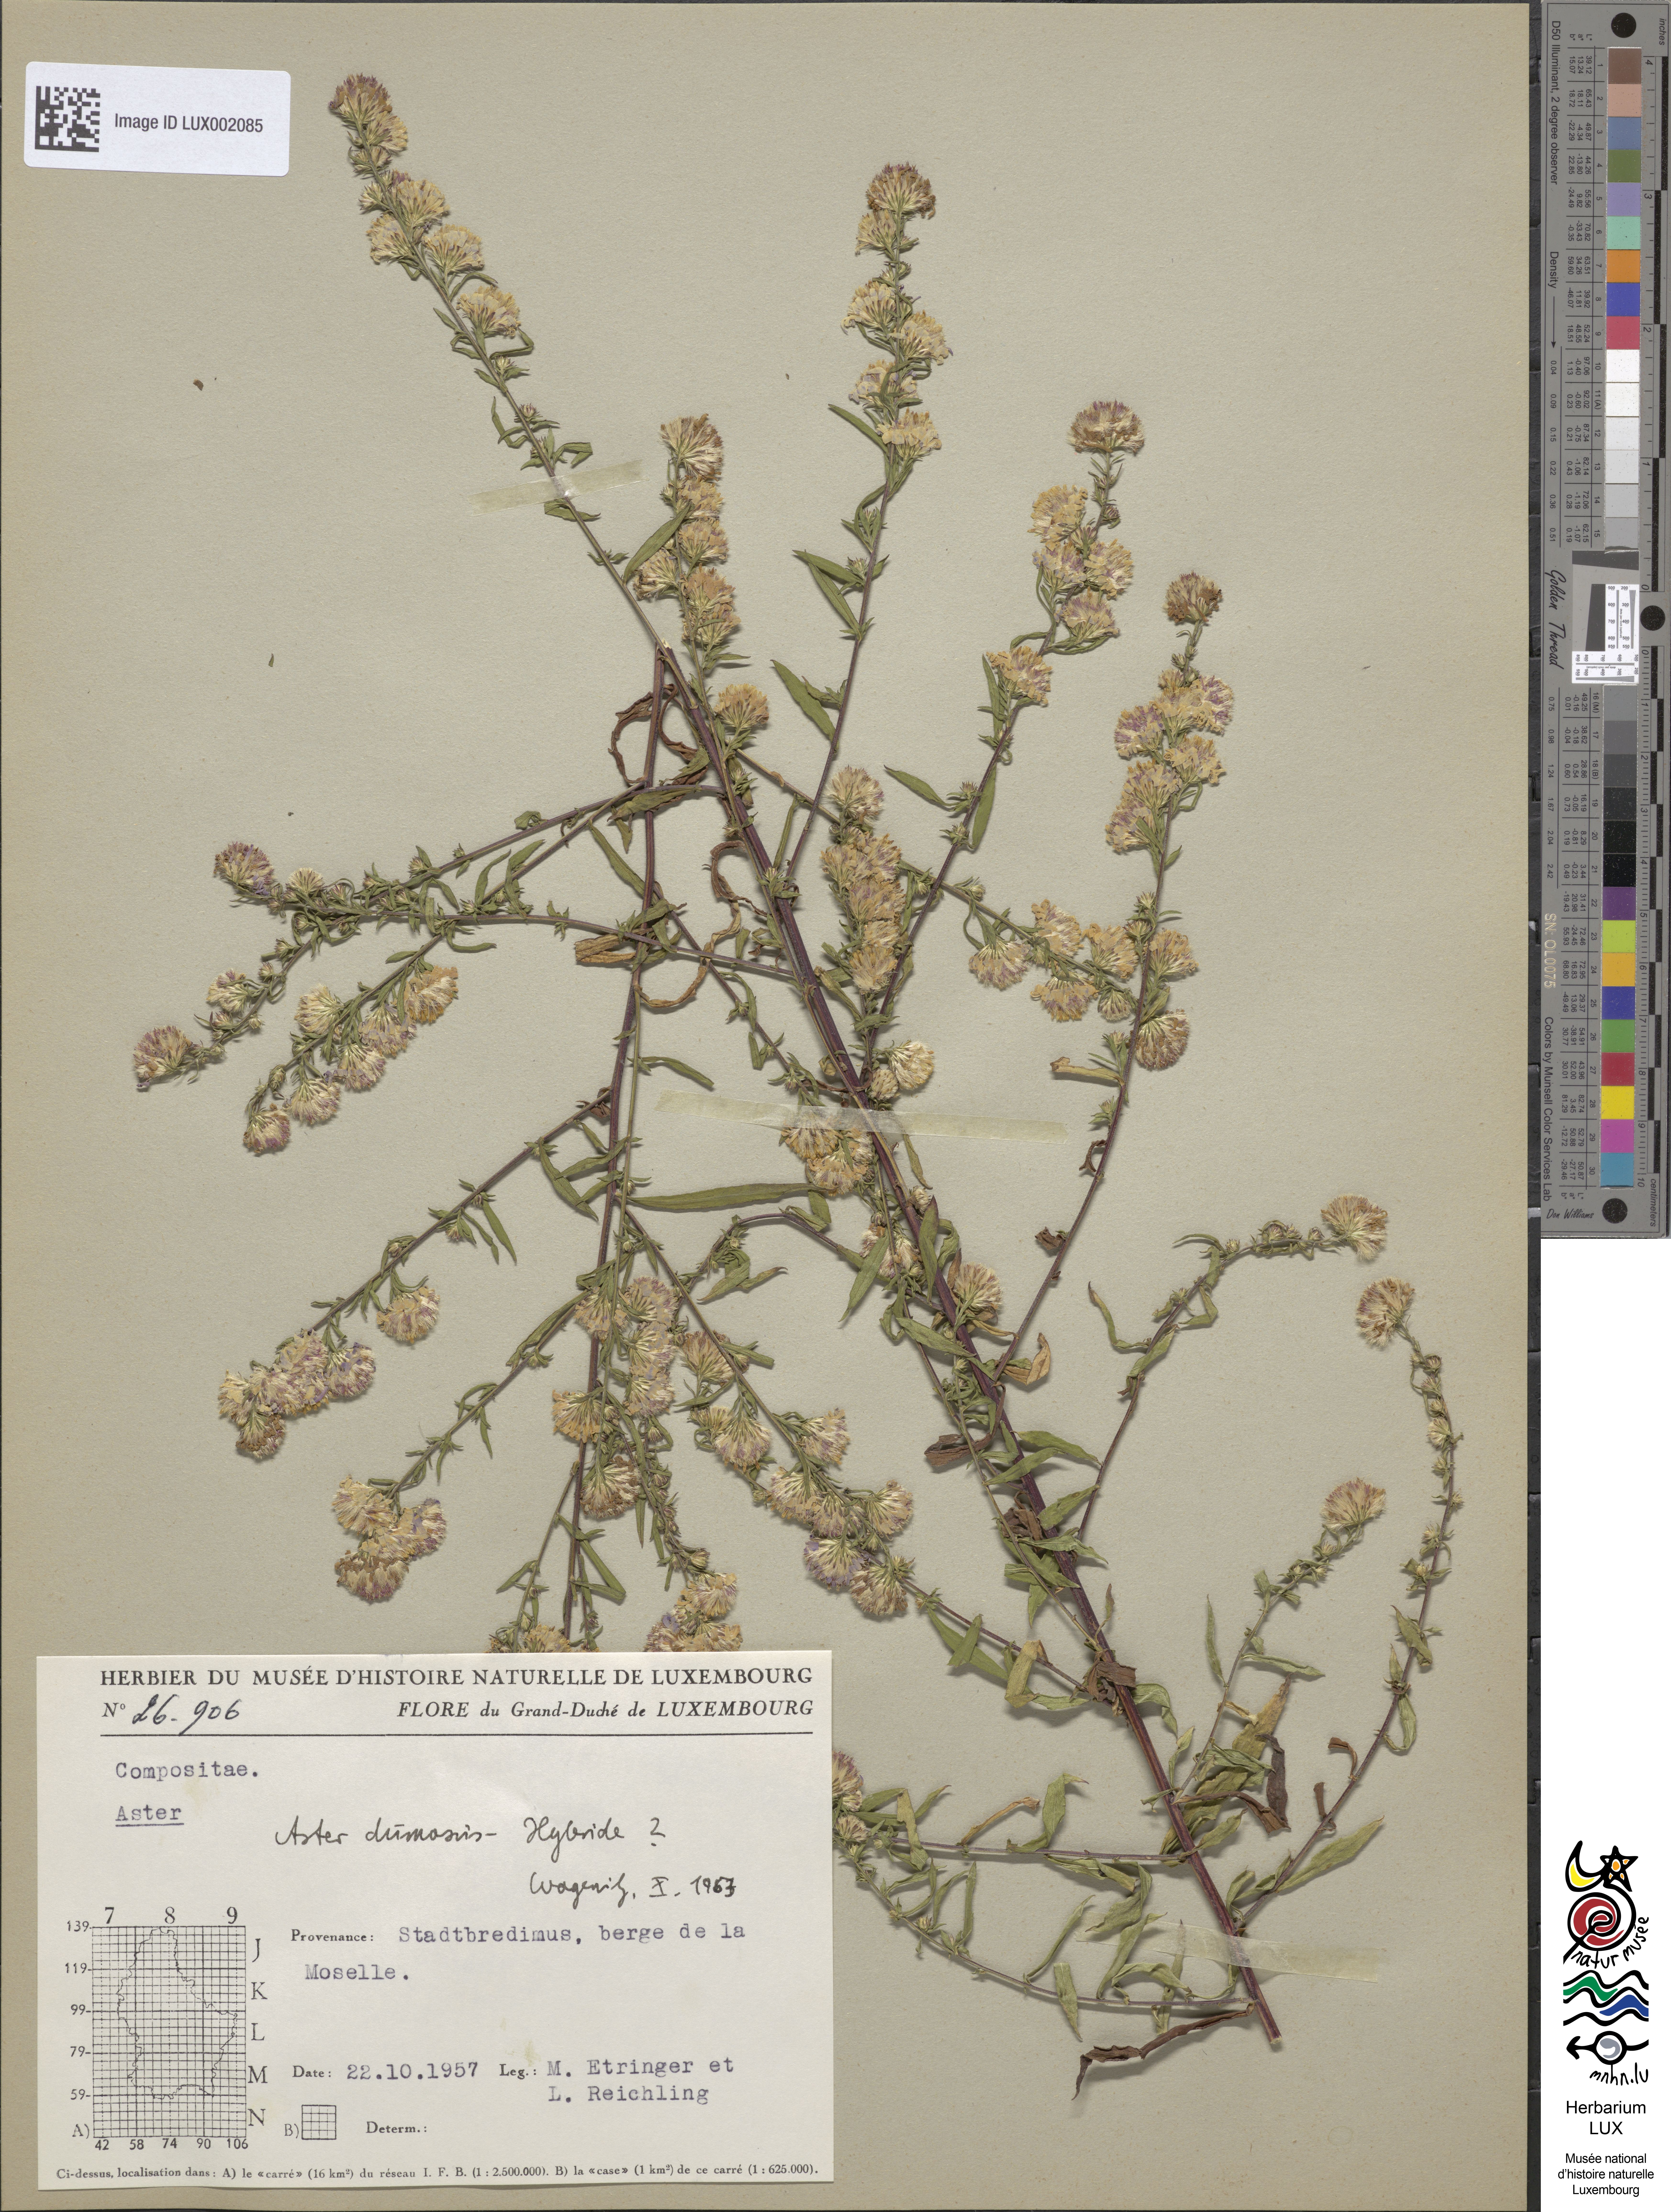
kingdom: Plantae
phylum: Tracheophyta
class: Magnoliopsida
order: Asterales
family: Asteraceae
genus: Symphyotrichum
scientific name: Symphyotrichum dumosum
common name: Bushy aster
